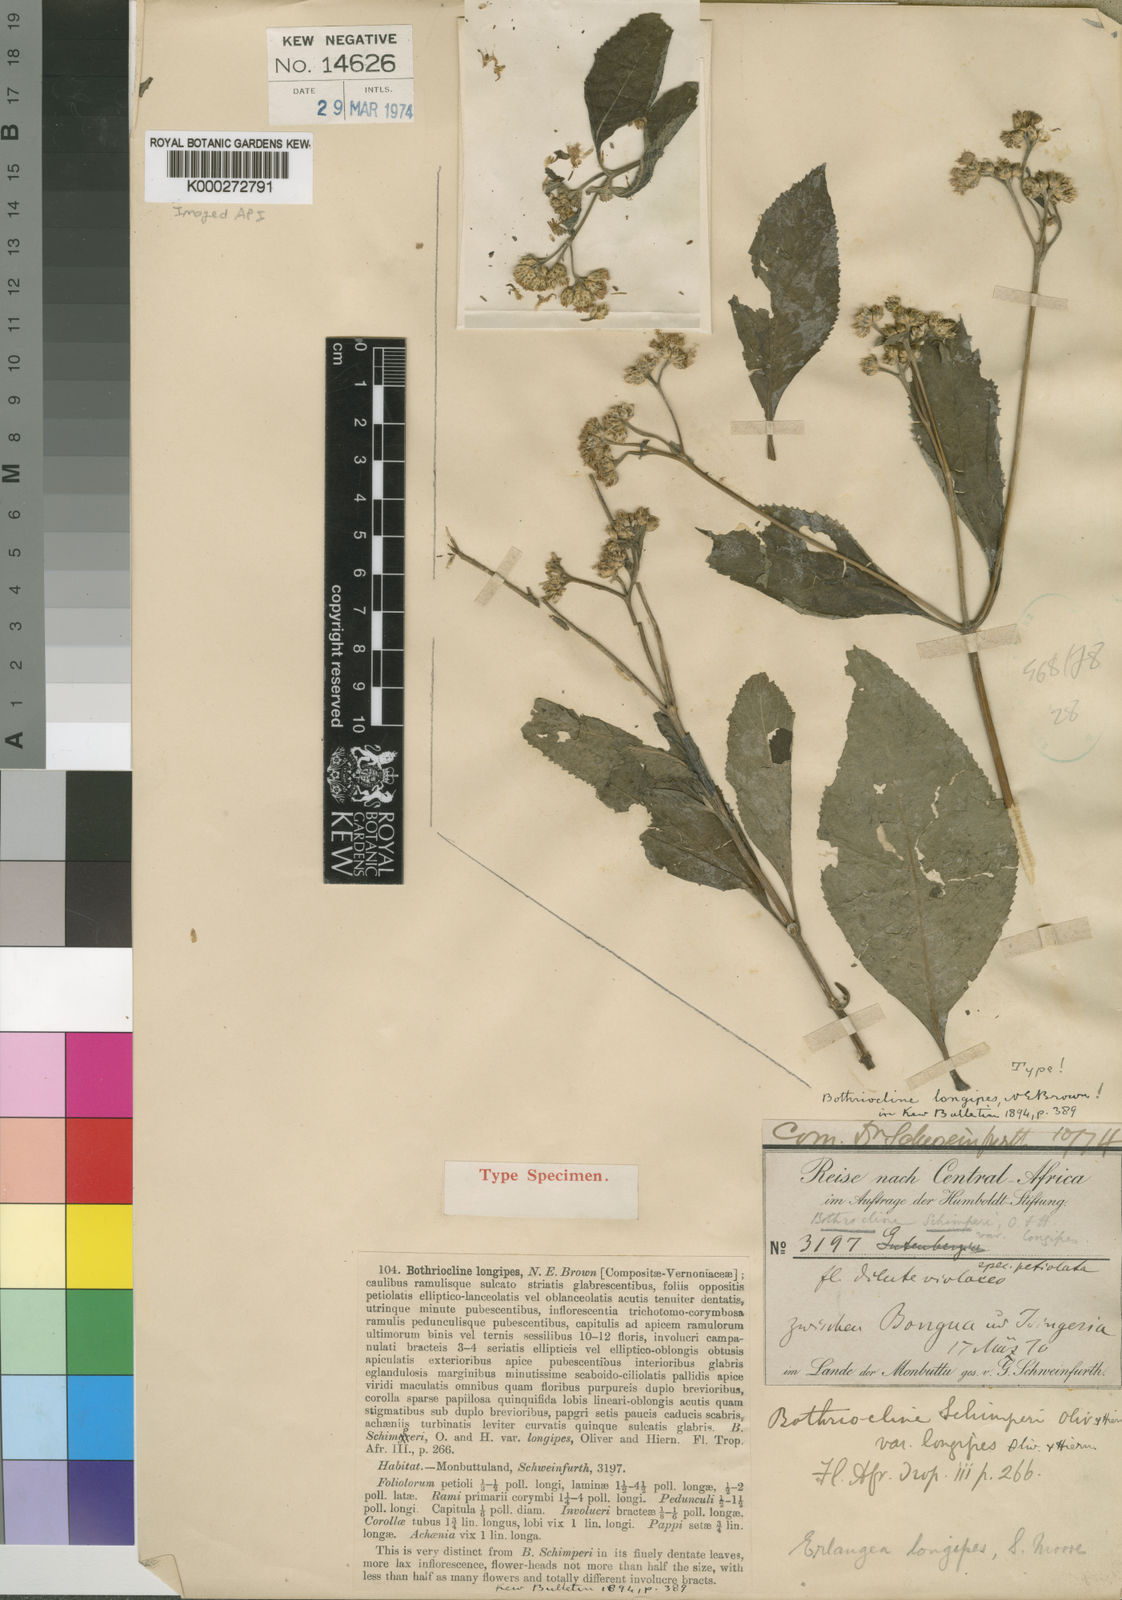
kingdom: Plantae
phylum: Tracheophyta
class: Magnoliopsida
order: Asterales
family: Asteraceae
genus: Bothriocline
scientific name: Bothriocline longipes
